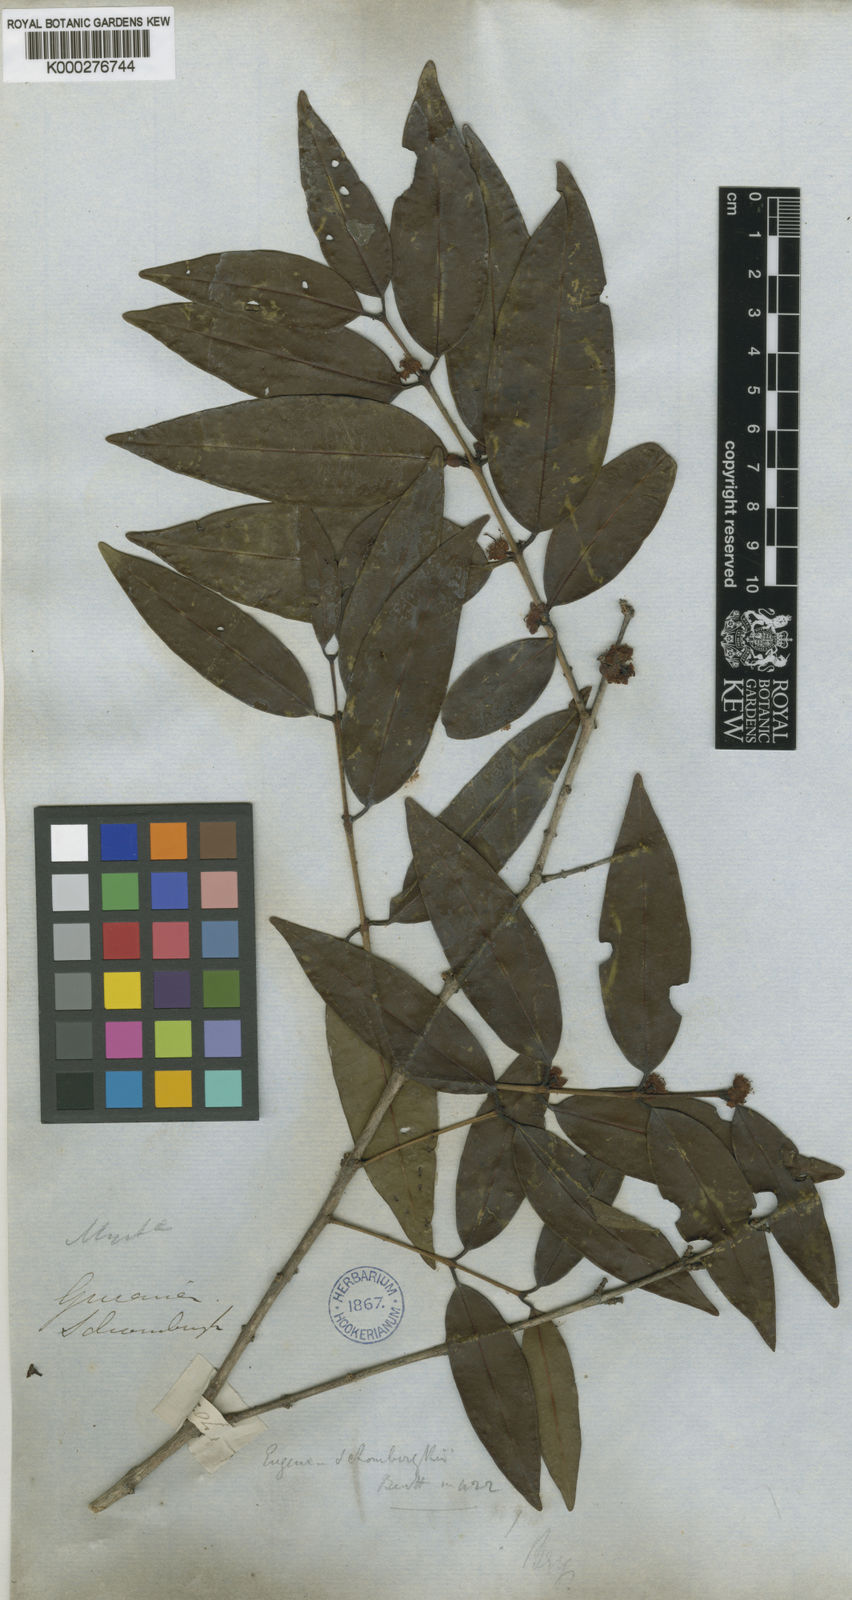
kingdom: Plantae
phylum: Tracheophyta
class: Magnoliopsida
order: Myrtales
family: Myrtaceae
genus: Eugenia
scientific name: Eugenia lambertiana
